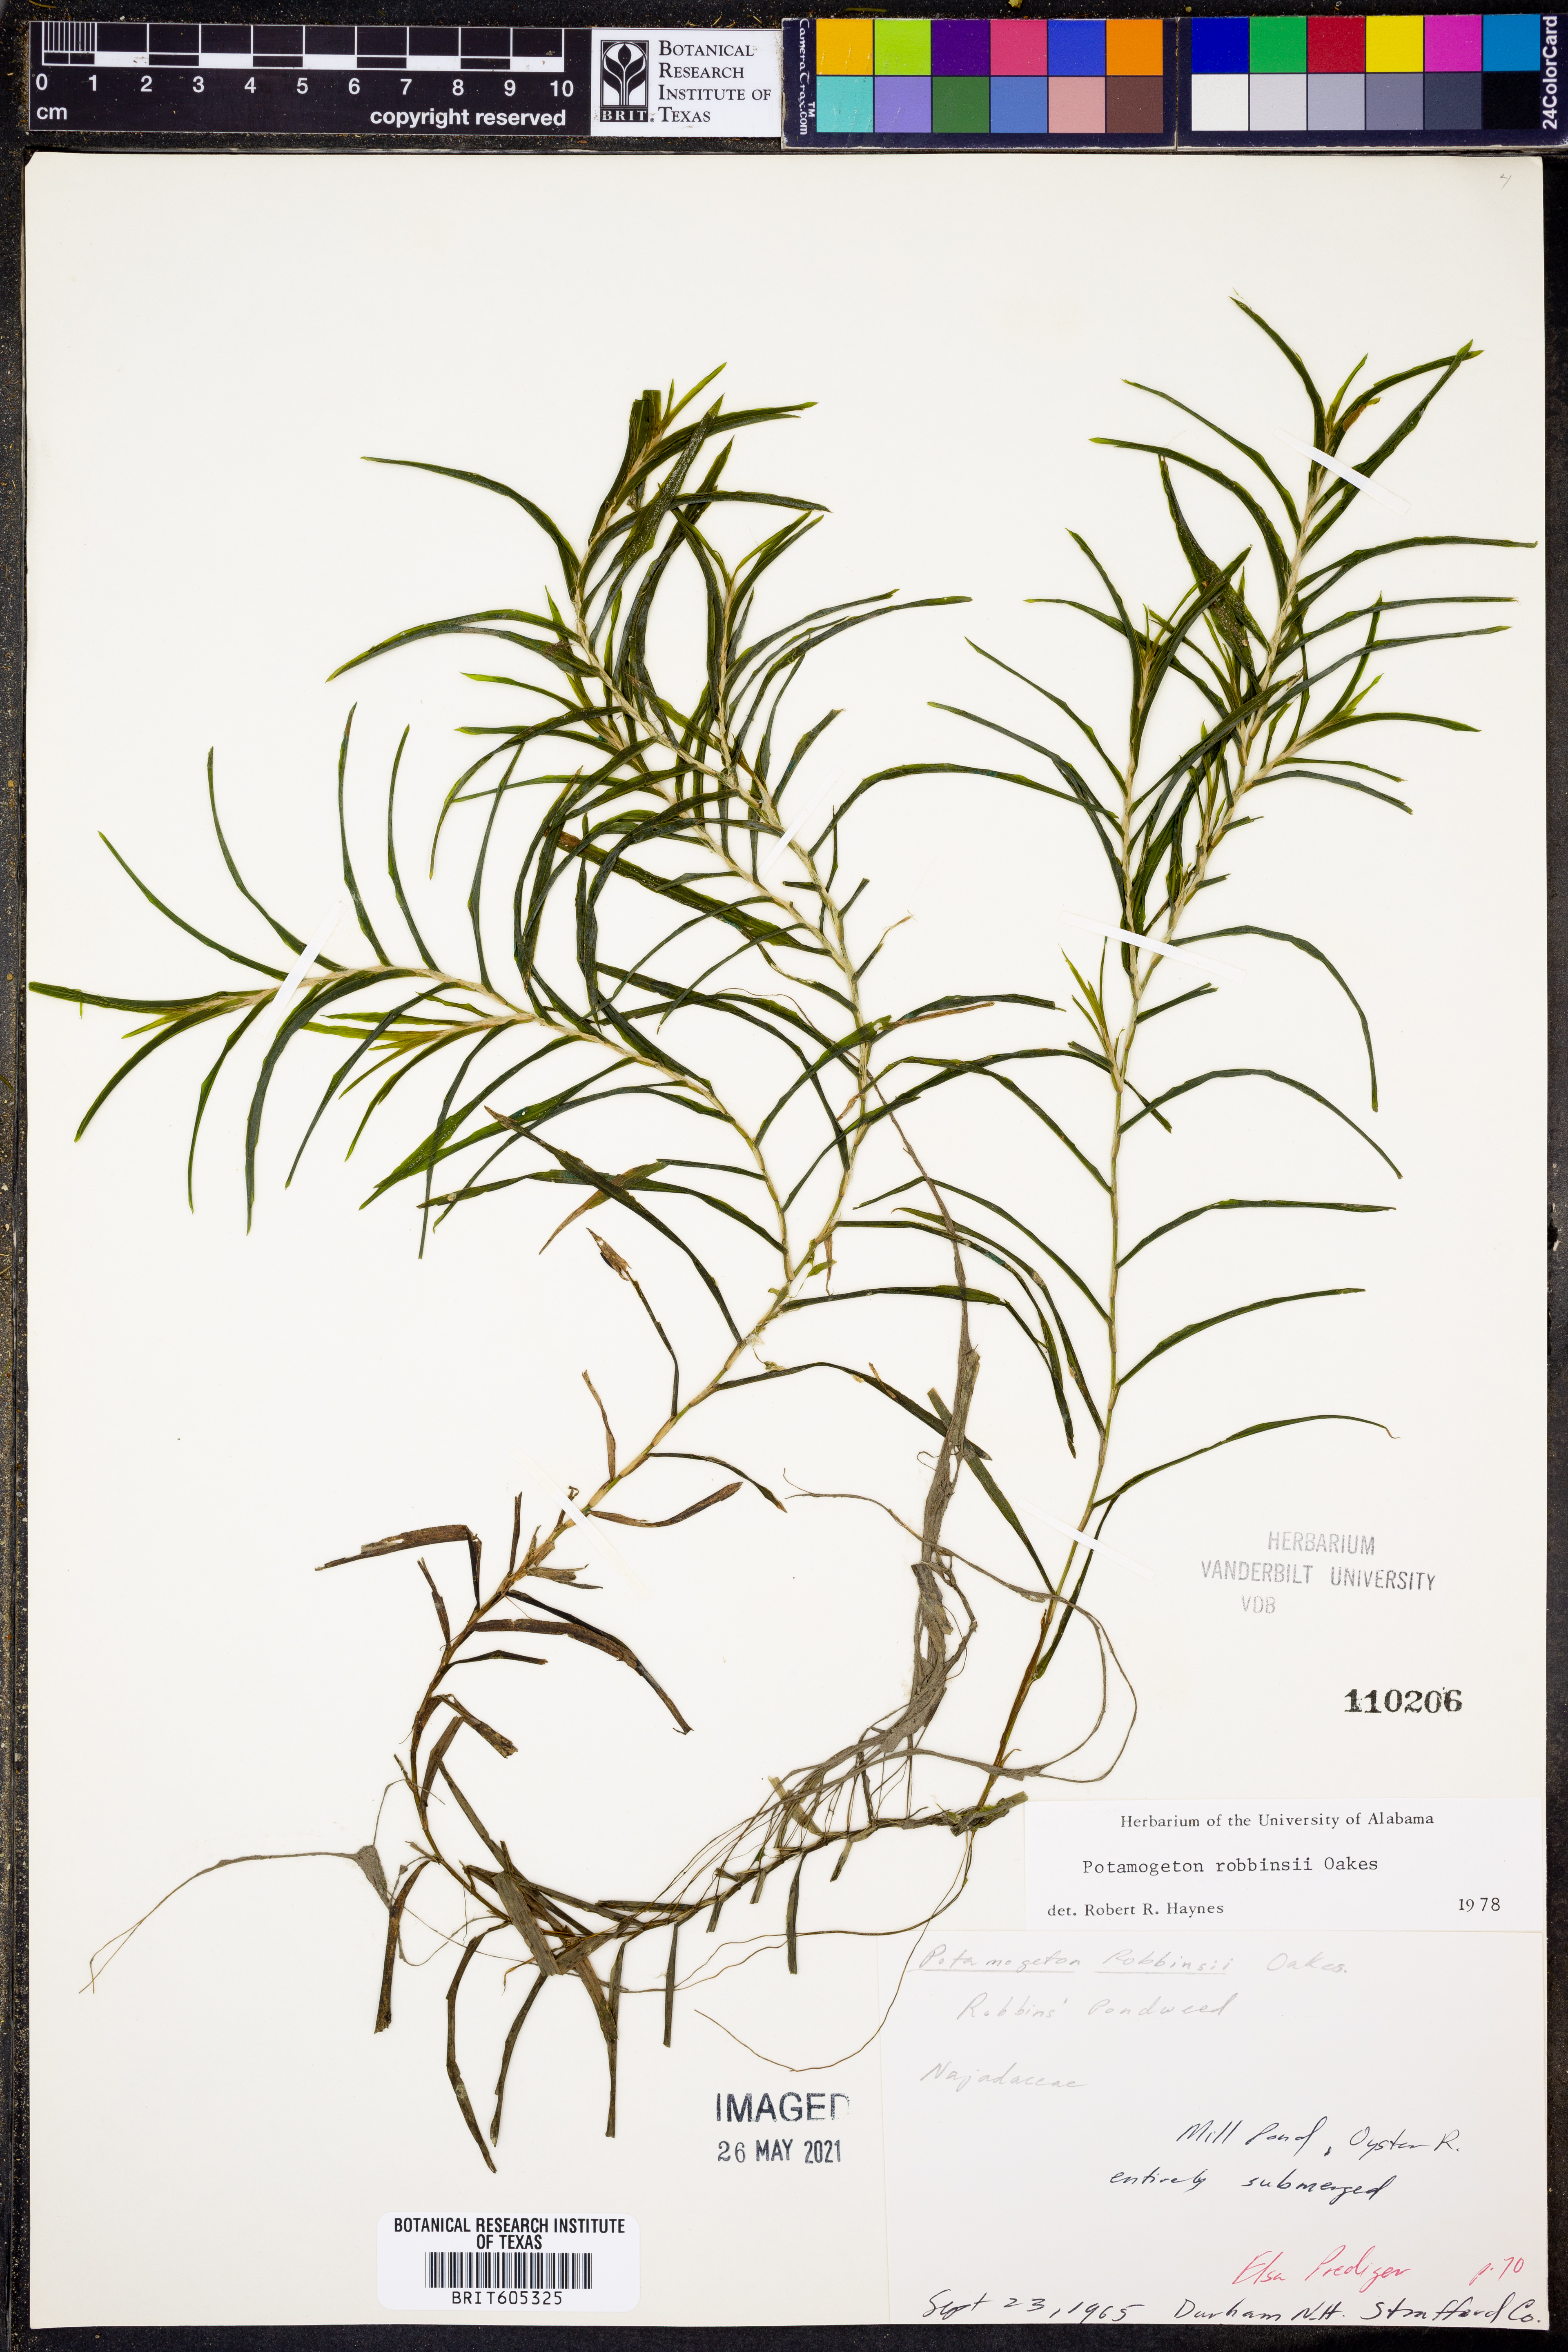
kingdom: Plantae
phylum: Tracheophyta
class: Liliopsida
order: Alismatales
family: Potamogetonaceae
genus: Potamogeton
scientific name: Potamogeton robbinsii
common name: Fern pondweed
